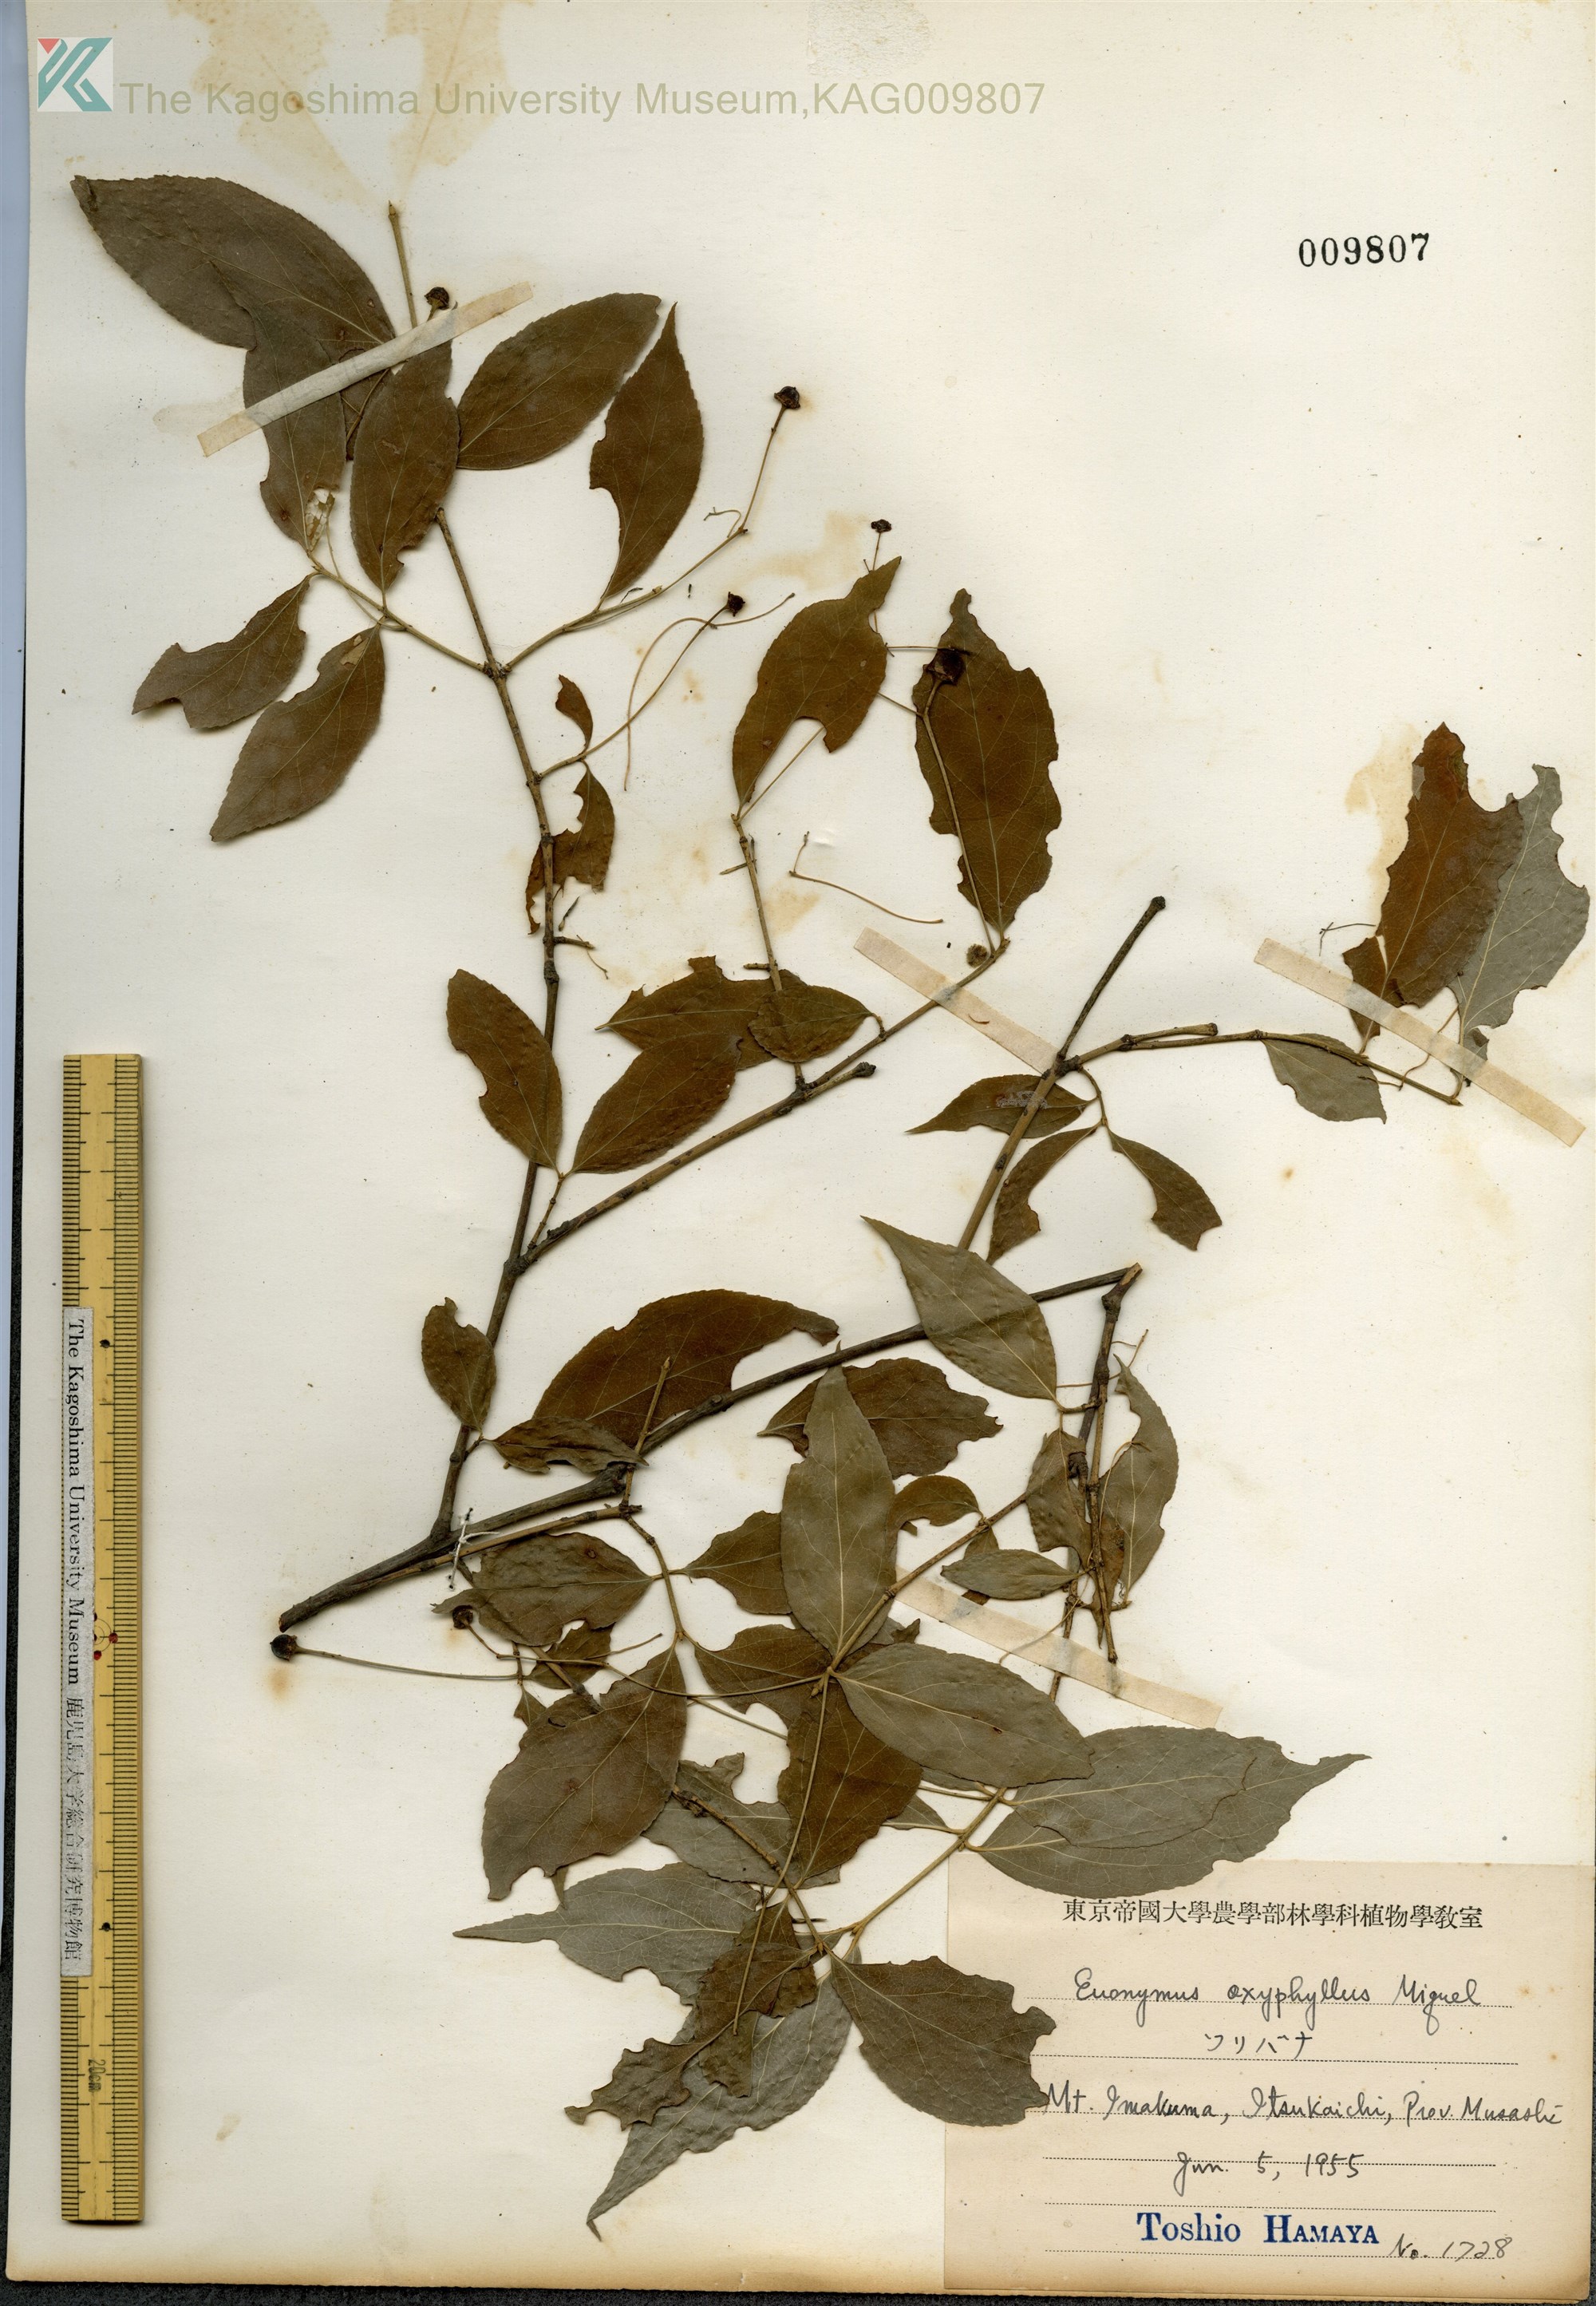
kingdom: Plantae
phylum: Tracheophyta
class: Magnoliopsida
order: Celastrales
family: Celastraceae
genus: Euonymus
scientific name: Euonymus oxyphyllus
